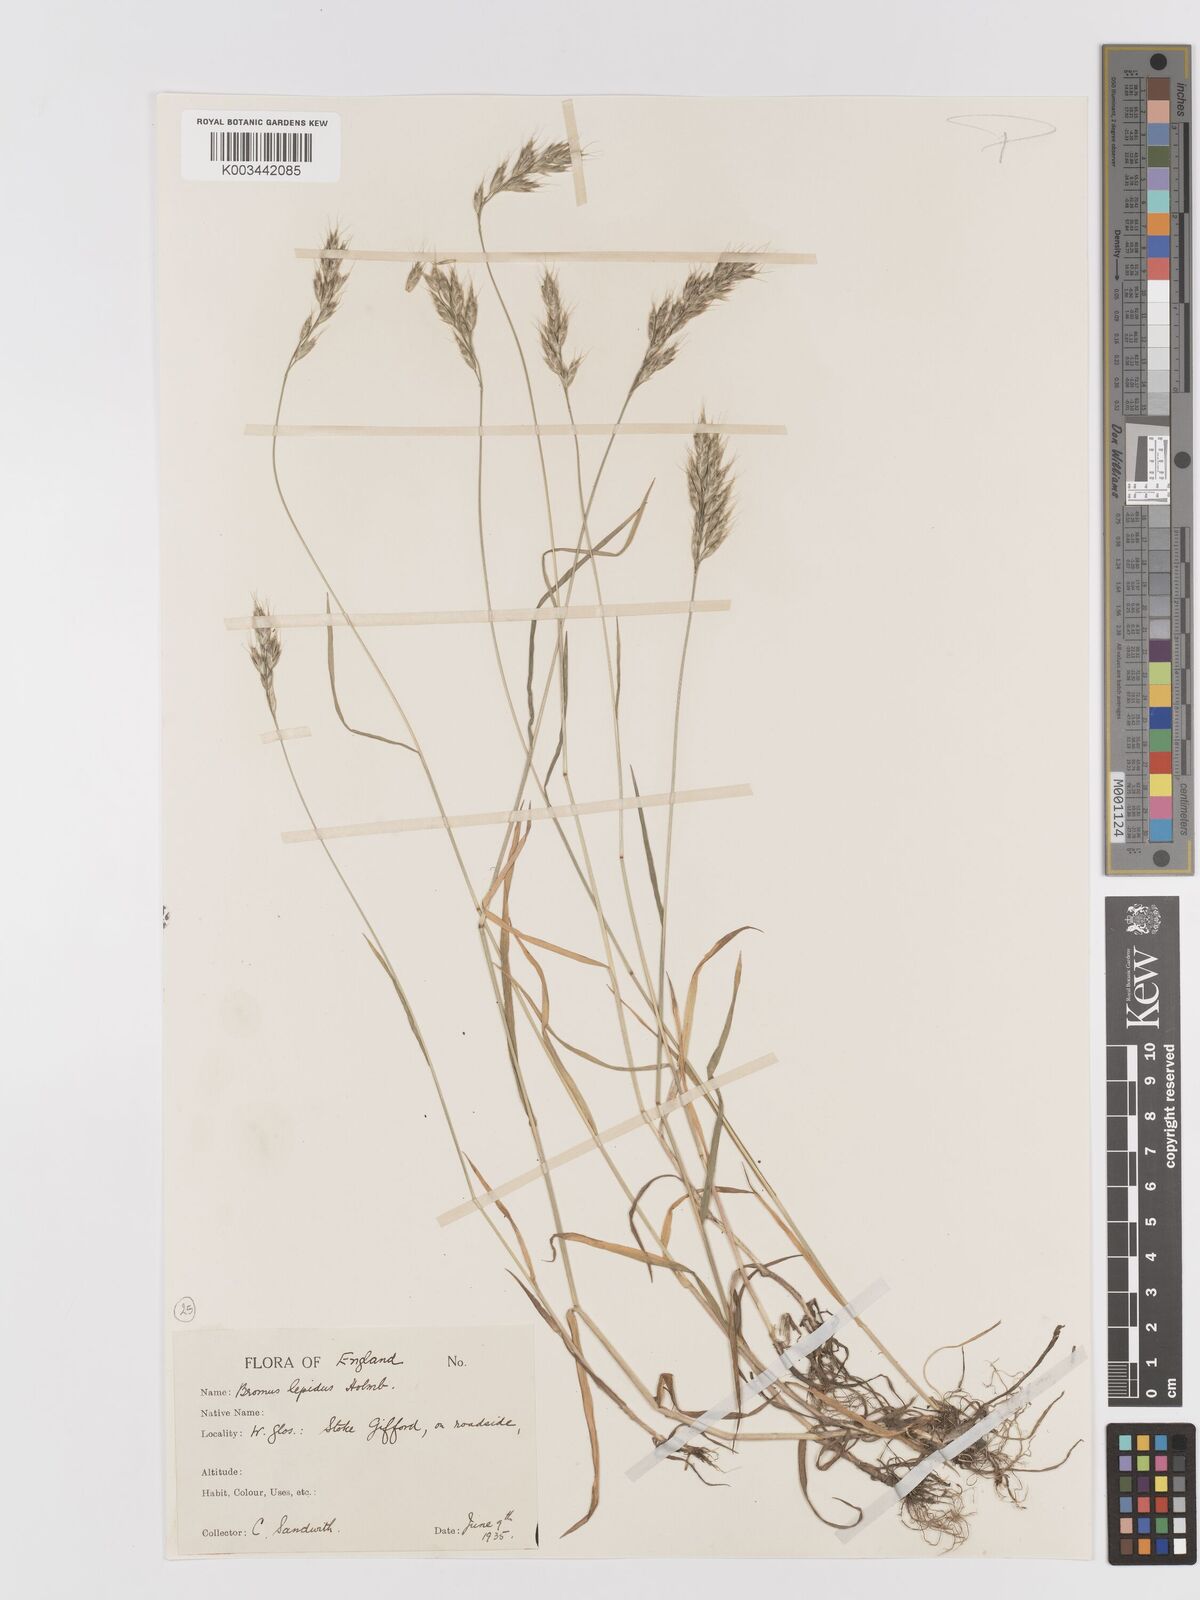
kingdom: Plantae
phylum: Tracheophyta
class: Liliopsida
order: Poales
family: Poaceae
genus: Bromus
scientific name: Bromus lepidus
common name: Slender soft-brome
